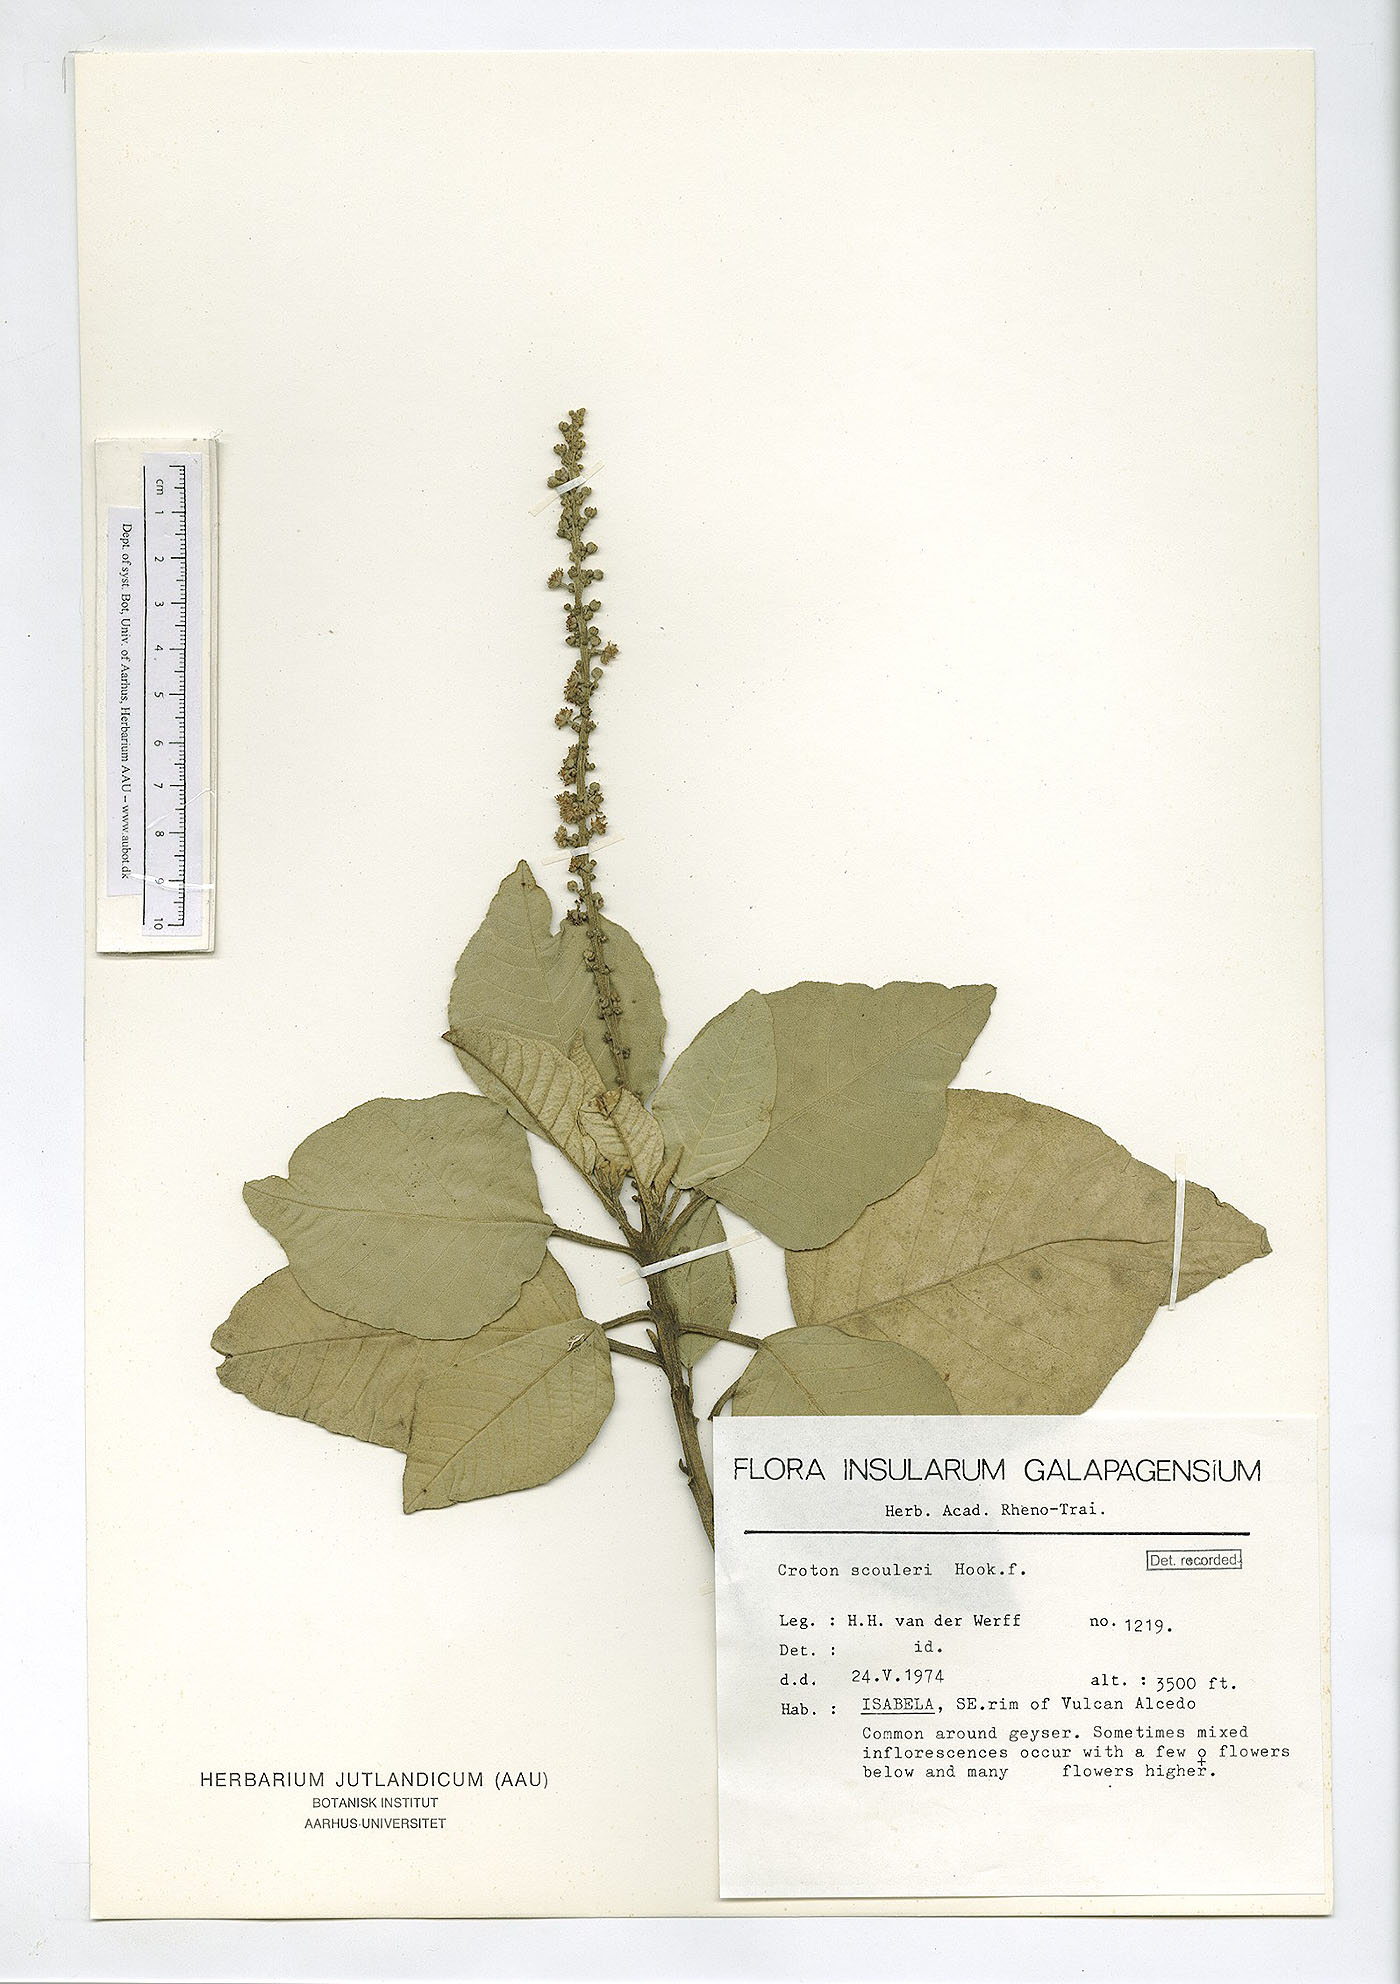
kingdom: Plantae
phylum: Tracheophyta
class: Magnoliopsida
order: Malpighiales
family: Euphorbiaceae
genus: Croton
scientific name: Croton scouleri
